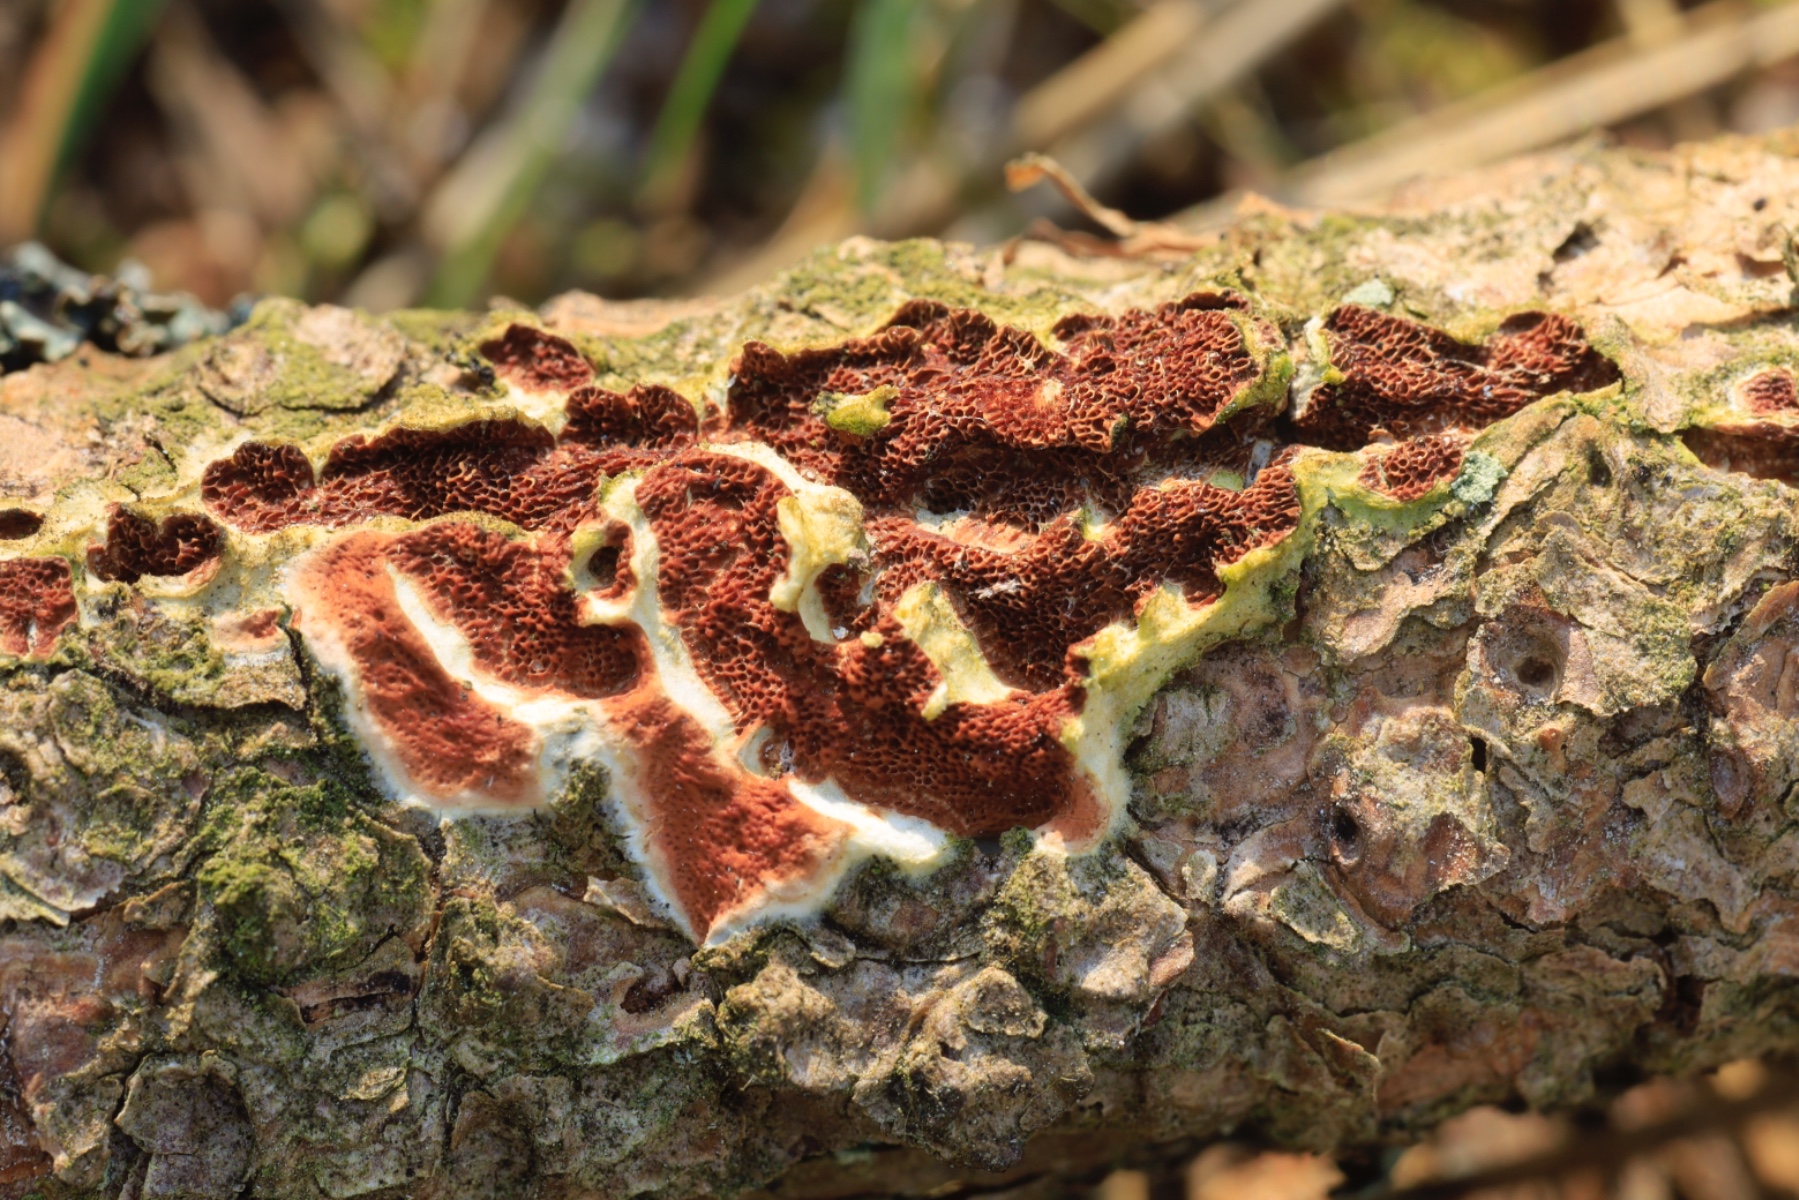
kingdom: Fungi
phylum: Basidiomycota
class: Agaricomycetes
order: Polyporales
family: Irpicaceae
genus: Meruliopsis
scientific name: Meruliopsis taxicola
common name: purpurbrun foldporesvamp
